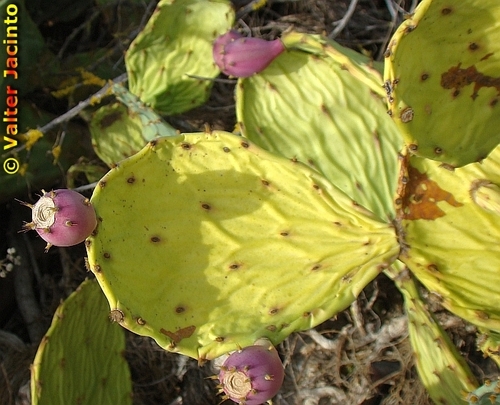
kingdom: Plantae
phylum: Tracheophyta
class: Magnoliopsida
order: Caryophyllales
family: Cactaceae
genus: Opuntia
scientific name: Opuntia stricta
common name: Erect pricklypear
